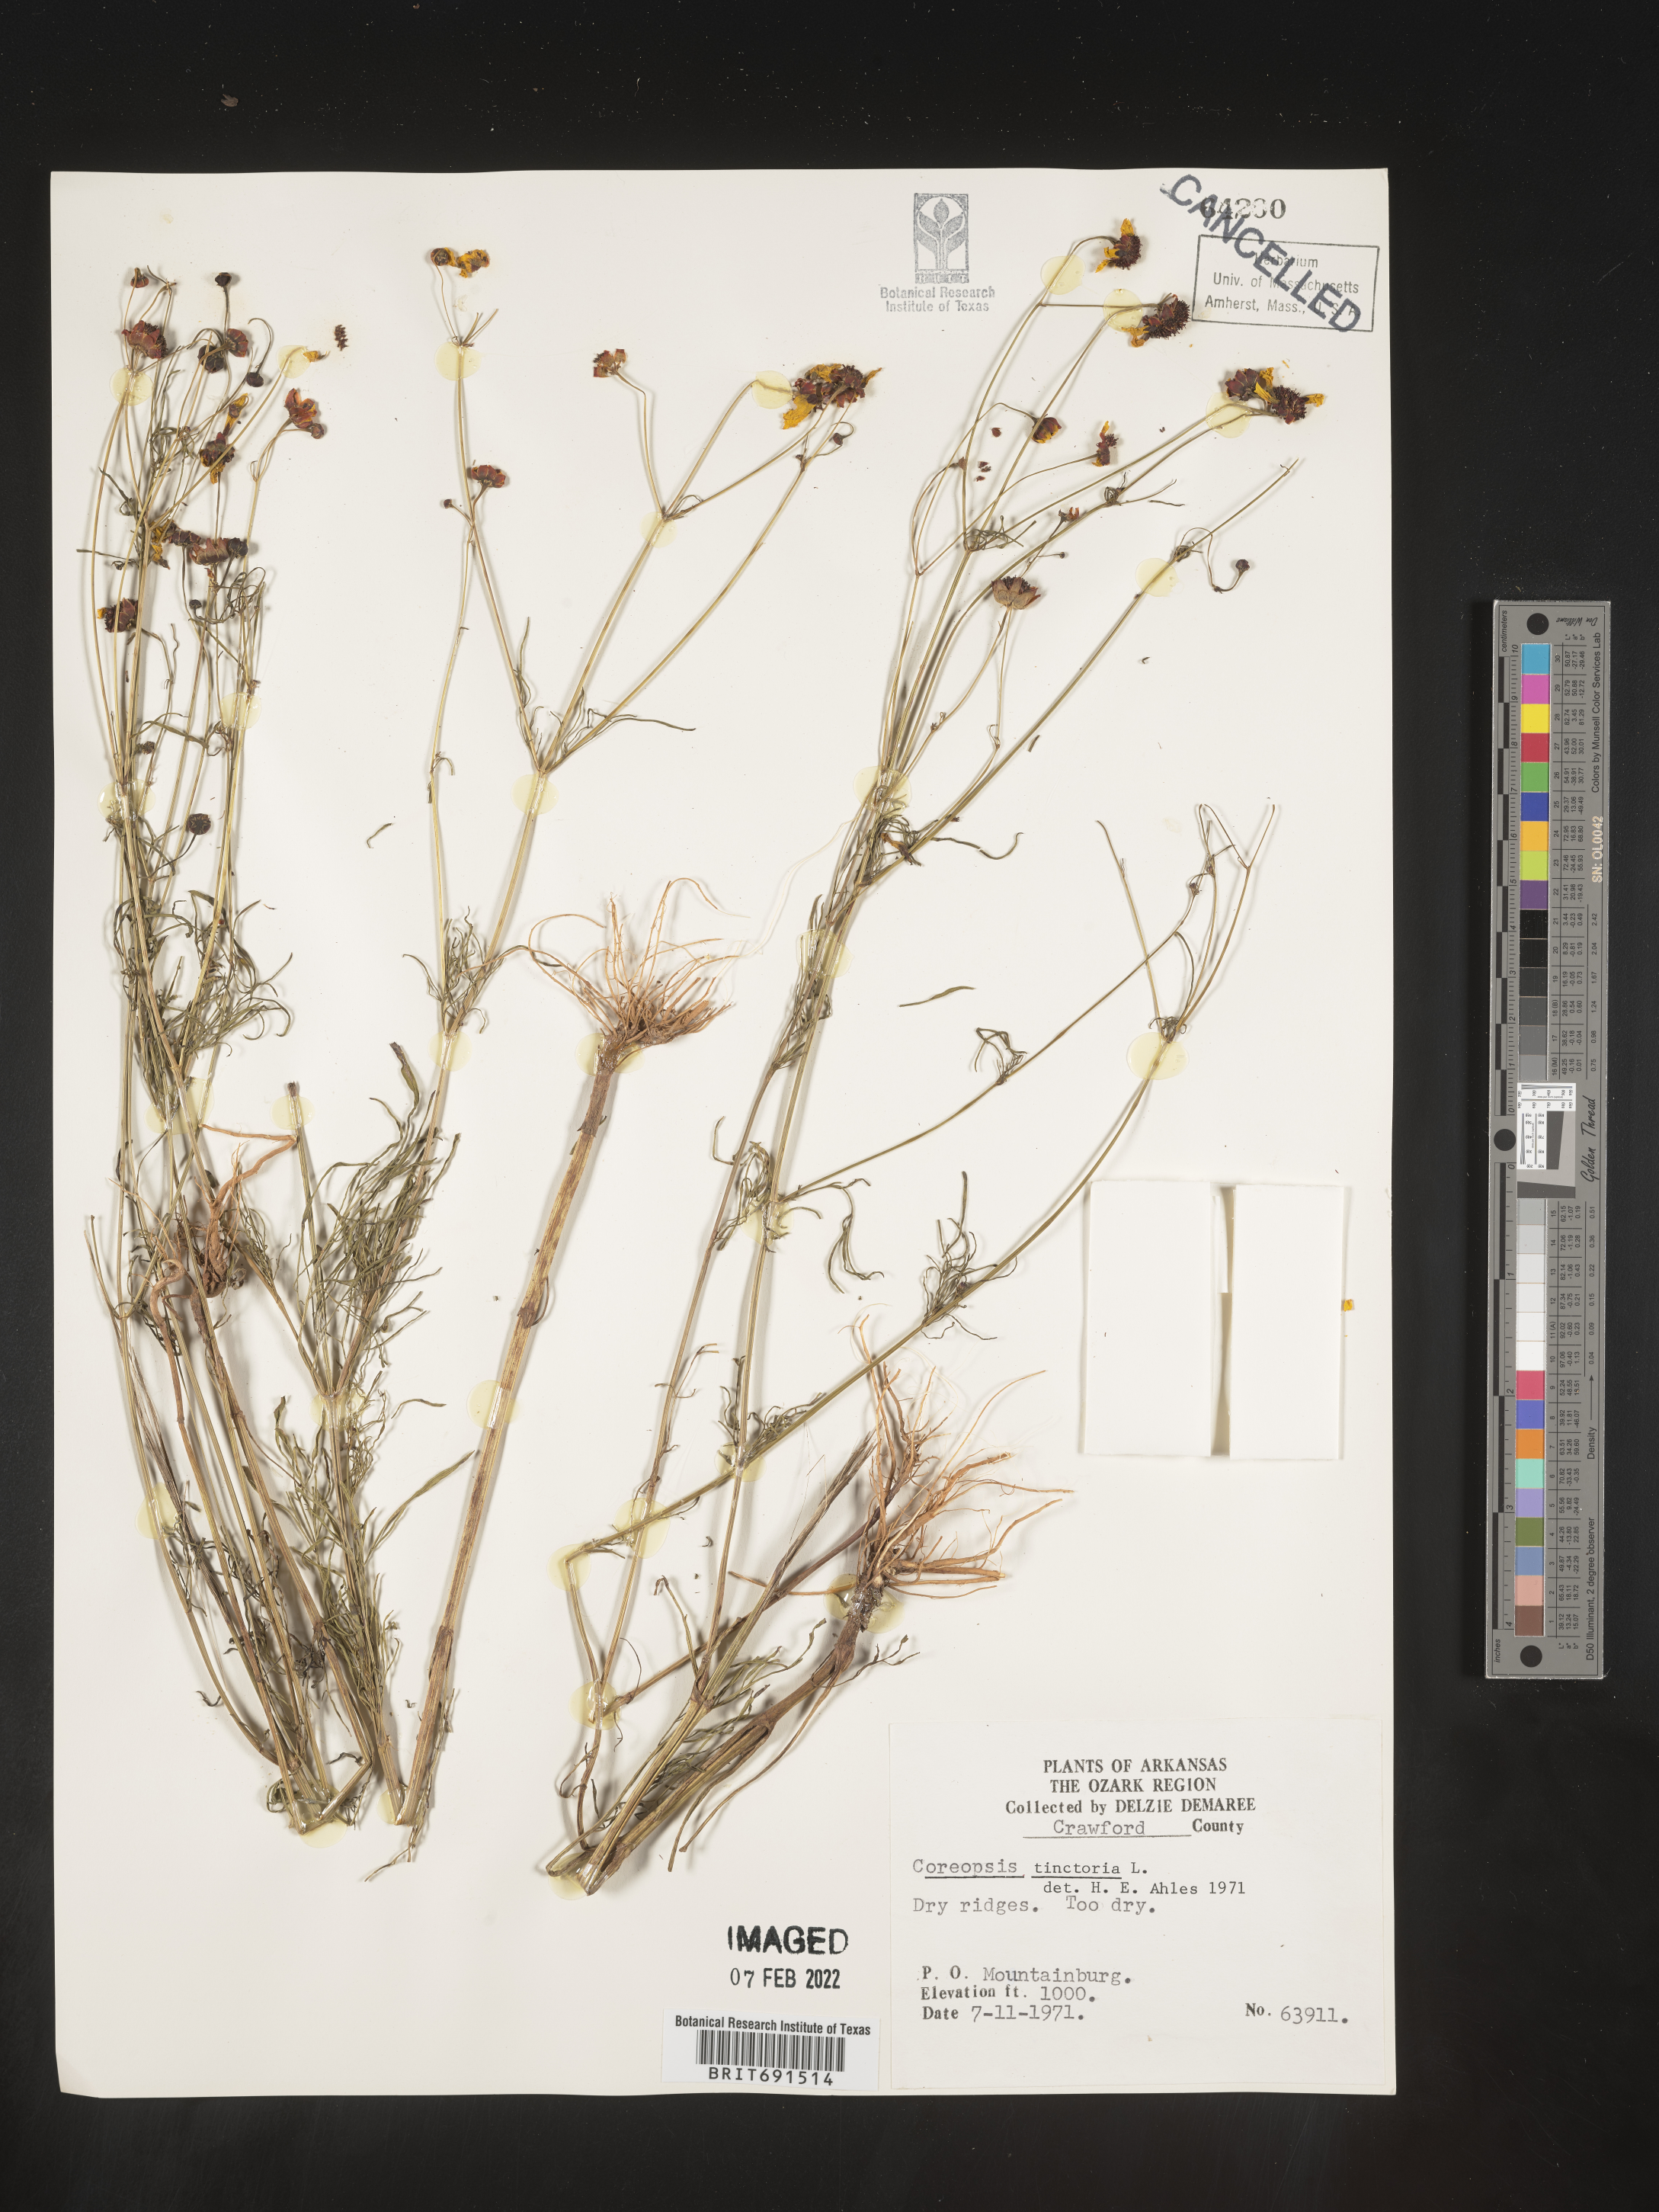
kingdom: Plantae
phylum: Tracheophyta
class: Magnoliopsida
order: Asterales
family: Asteraceae
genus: Coreopsis
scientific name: Coreopsis tinctoria
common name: Garden tickseed
